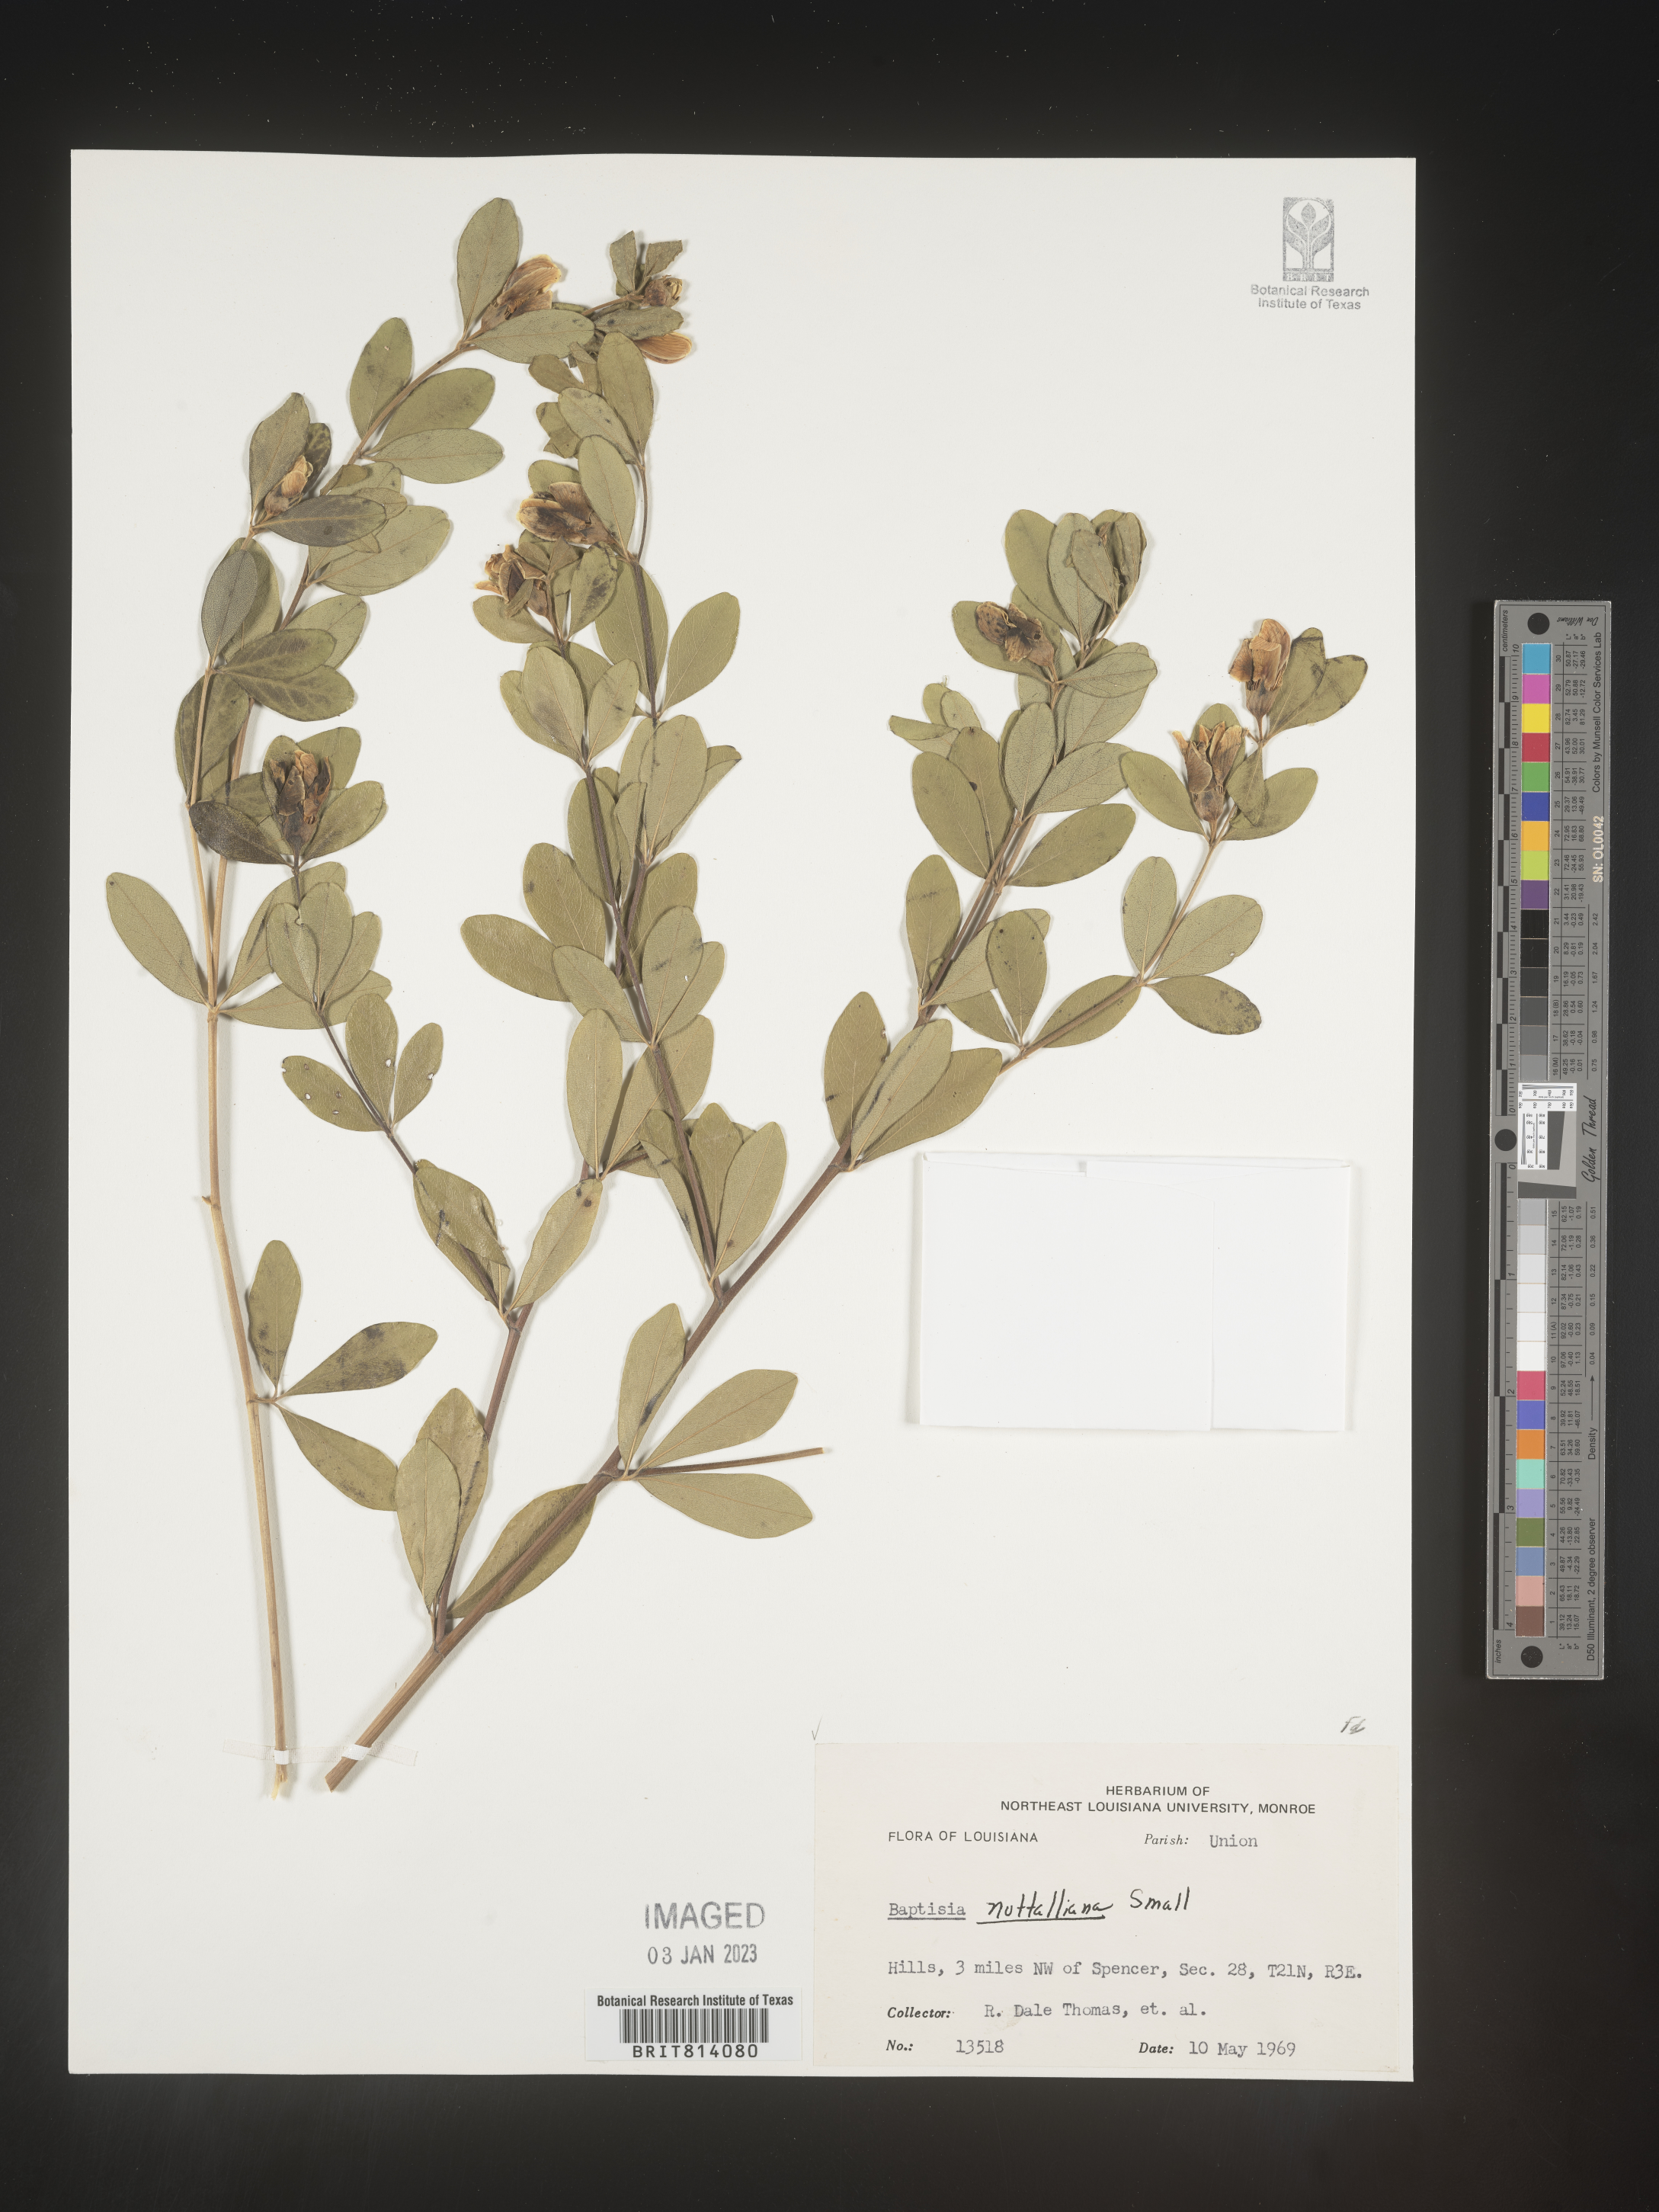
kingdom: Plantae
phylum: Tracheophyta
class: Magnoliopsida
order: Fabales
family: Fabaceae
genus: Baptisia
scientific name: Baptisia nuttalliana
